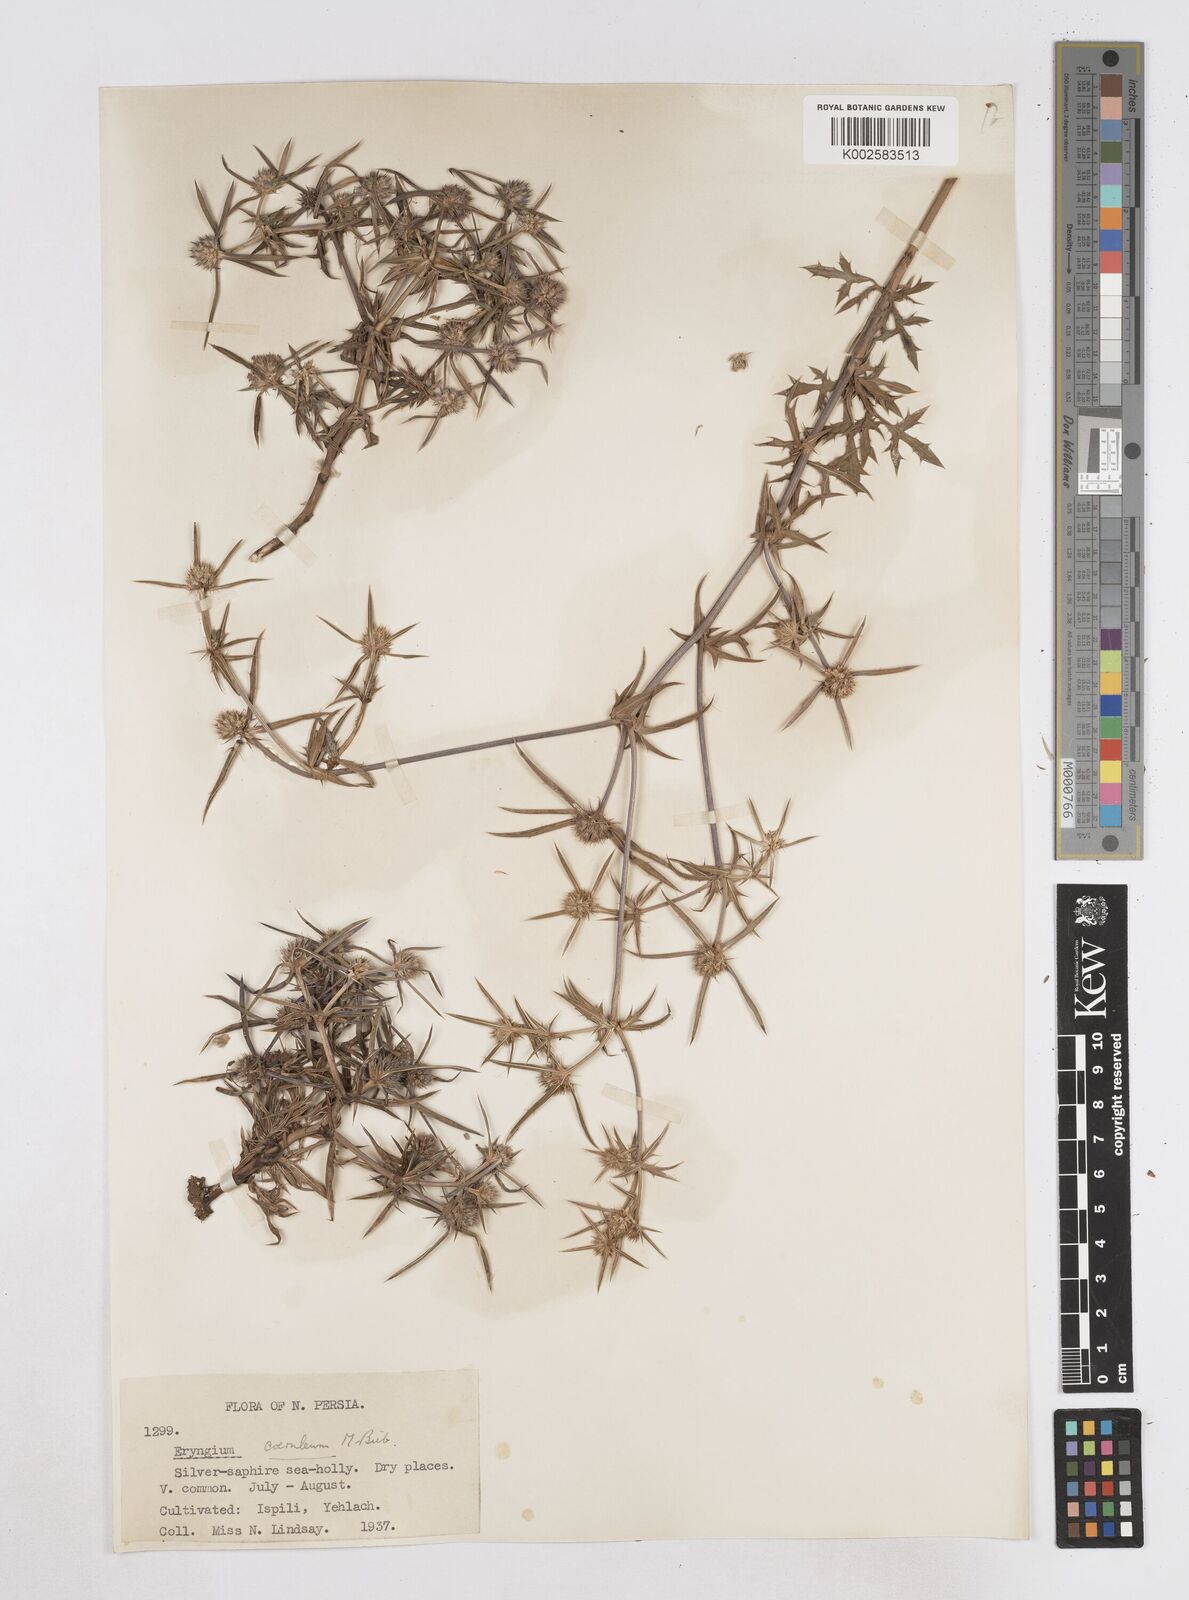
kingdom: Plantae
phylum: Tracheophyta
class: Magnoliopsida
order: Apiales
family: Apiaceae
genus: Eryngium
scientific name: Eryngium caeruleum
